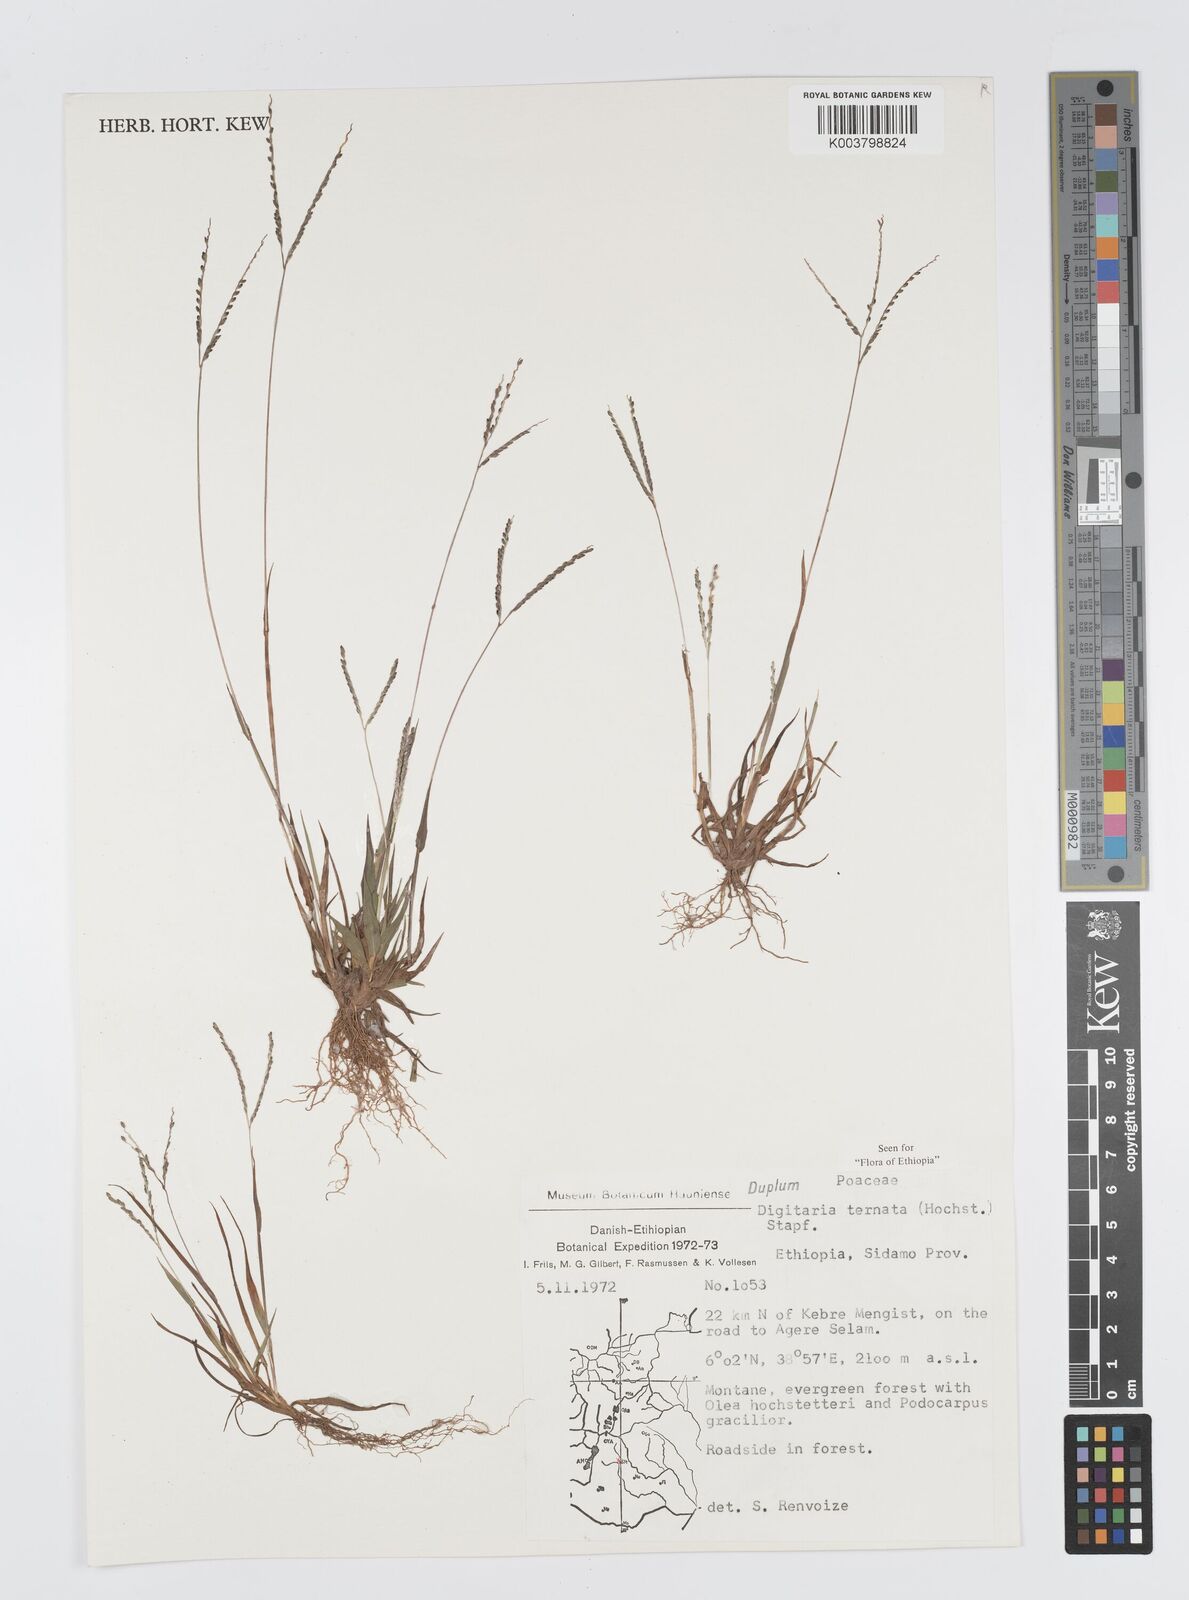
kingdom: Plantae
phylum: Tracheophyta
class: Liliopsida
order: Poales
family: Poaceae
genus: Digitaria
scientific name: Digitaria ternata
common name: Blackseed crabgrass
